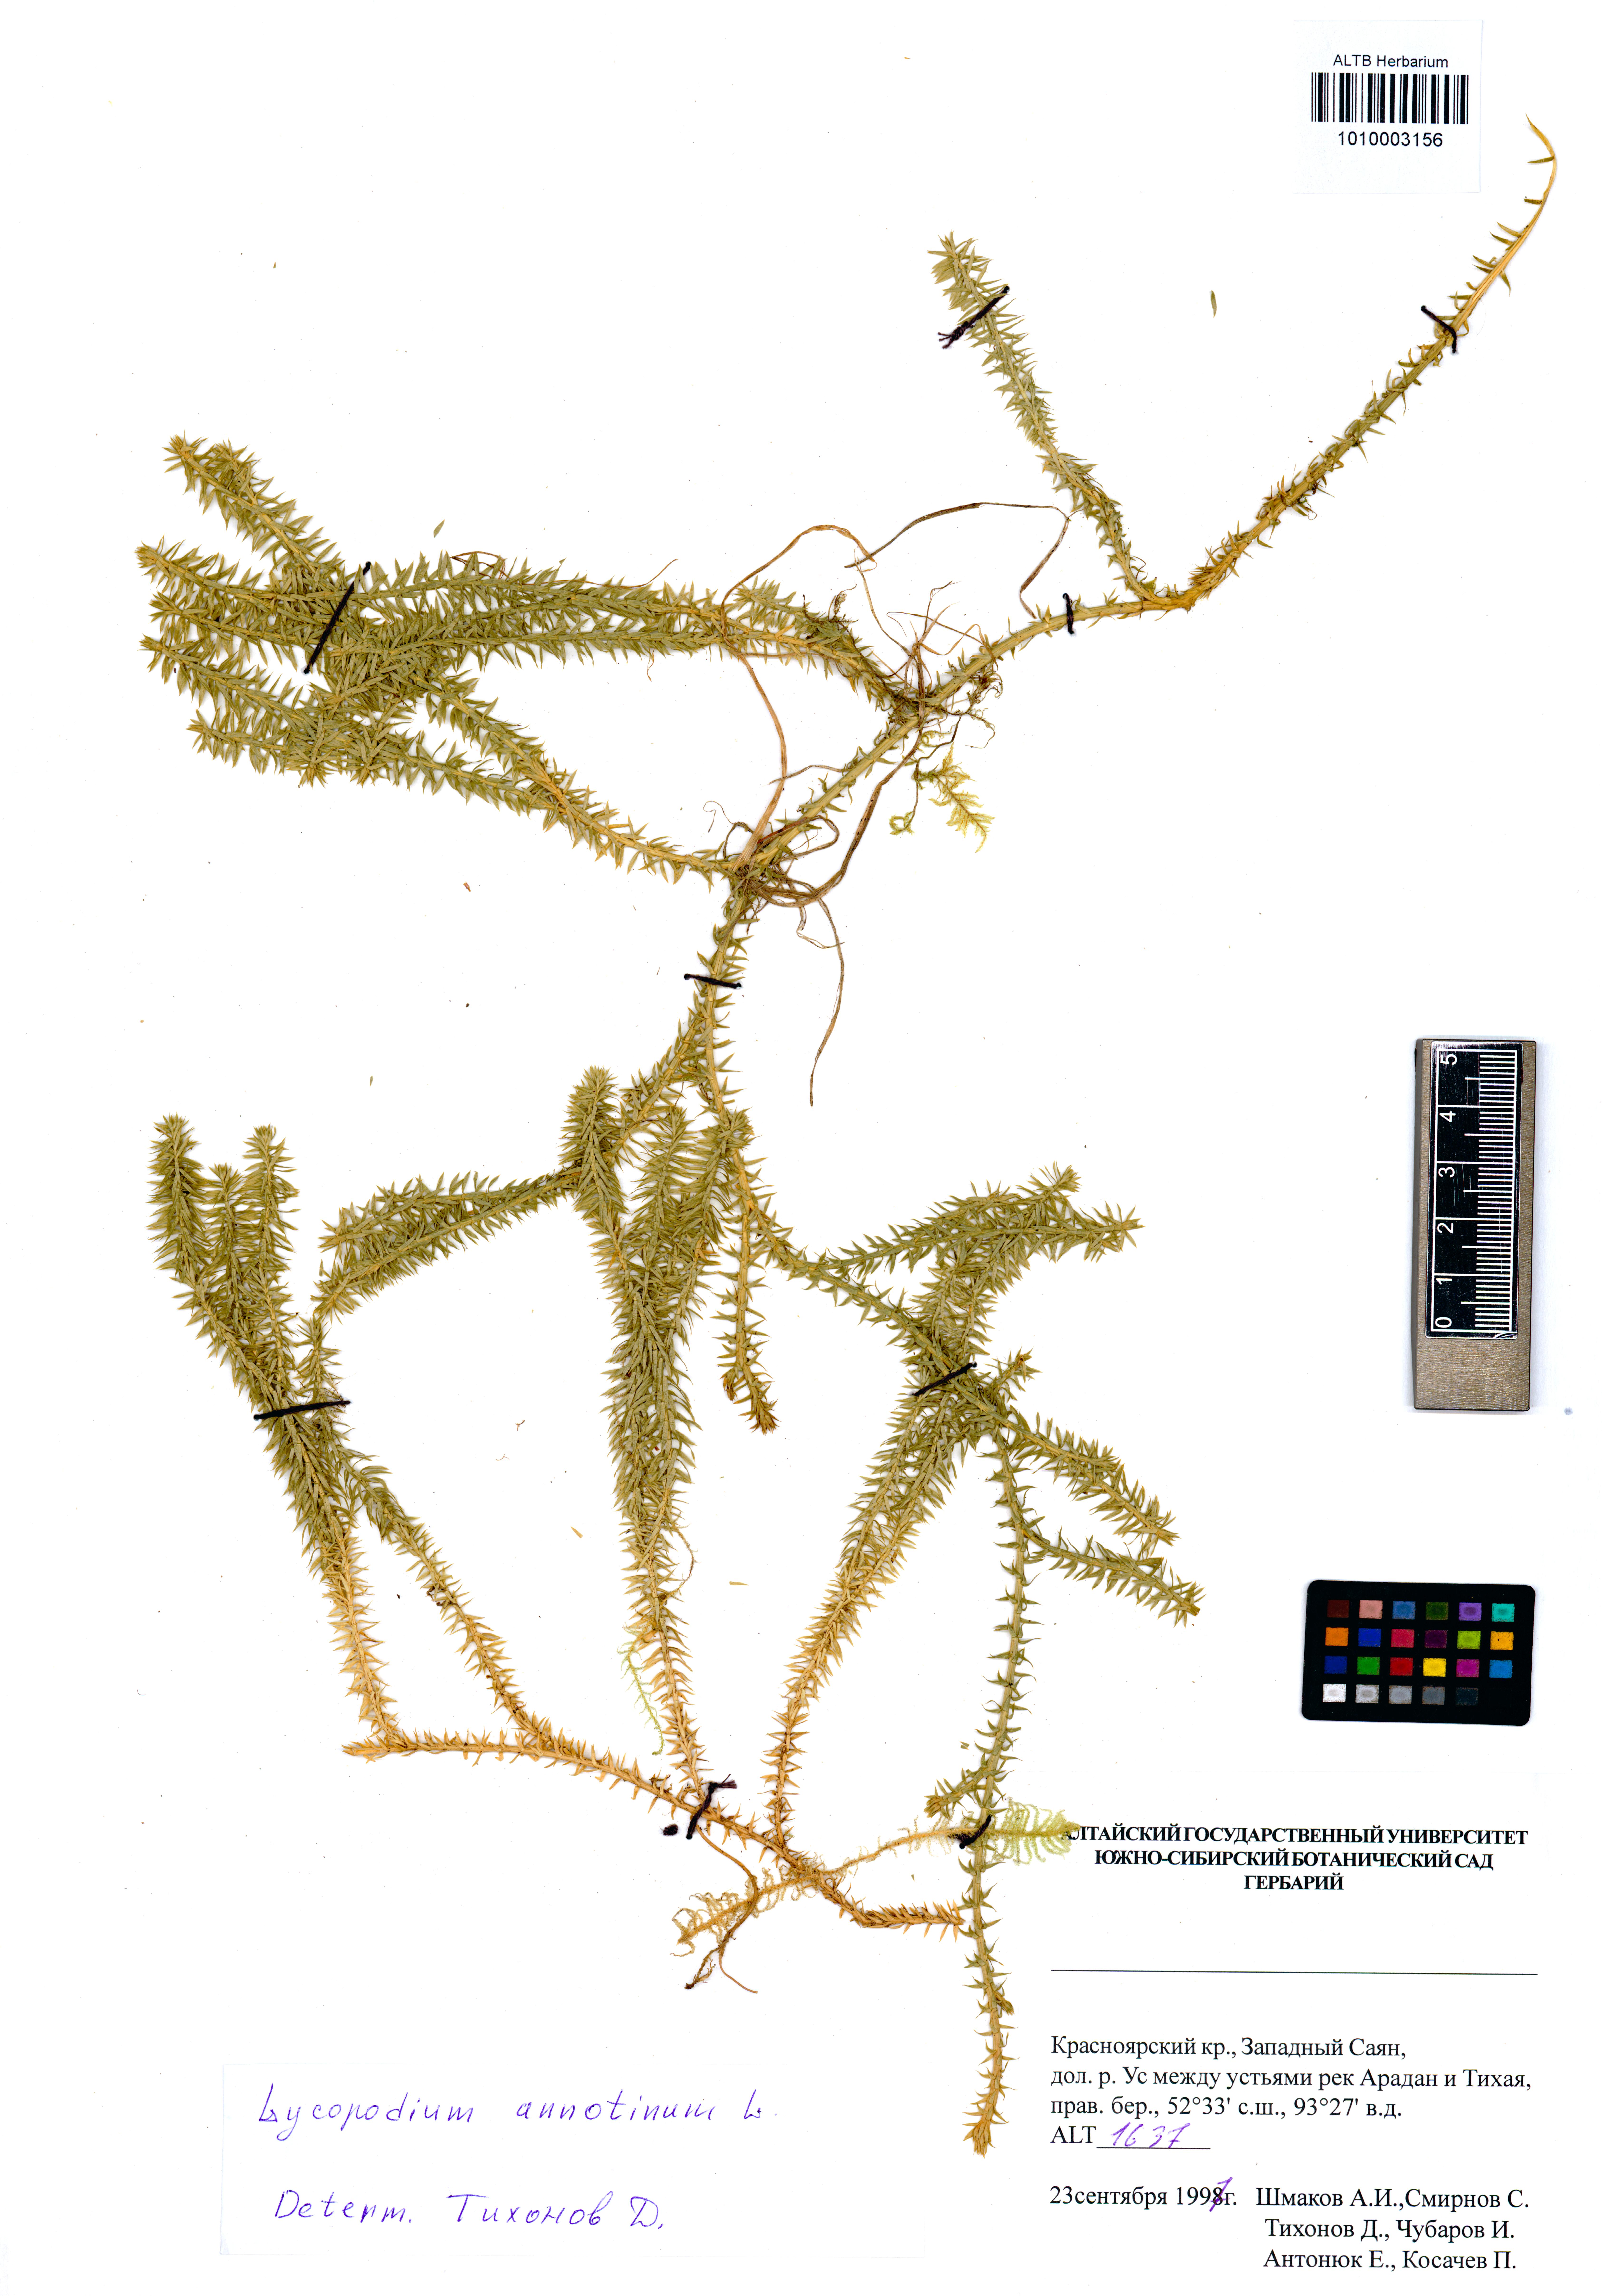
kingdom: Plantae
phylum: Tracheophyta
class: Lycopodiopsida
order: Lycopodiales
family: Lycopodiaceae
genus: Spinulum
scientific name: Spinulum annotinum
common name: Interrupted club-moss
